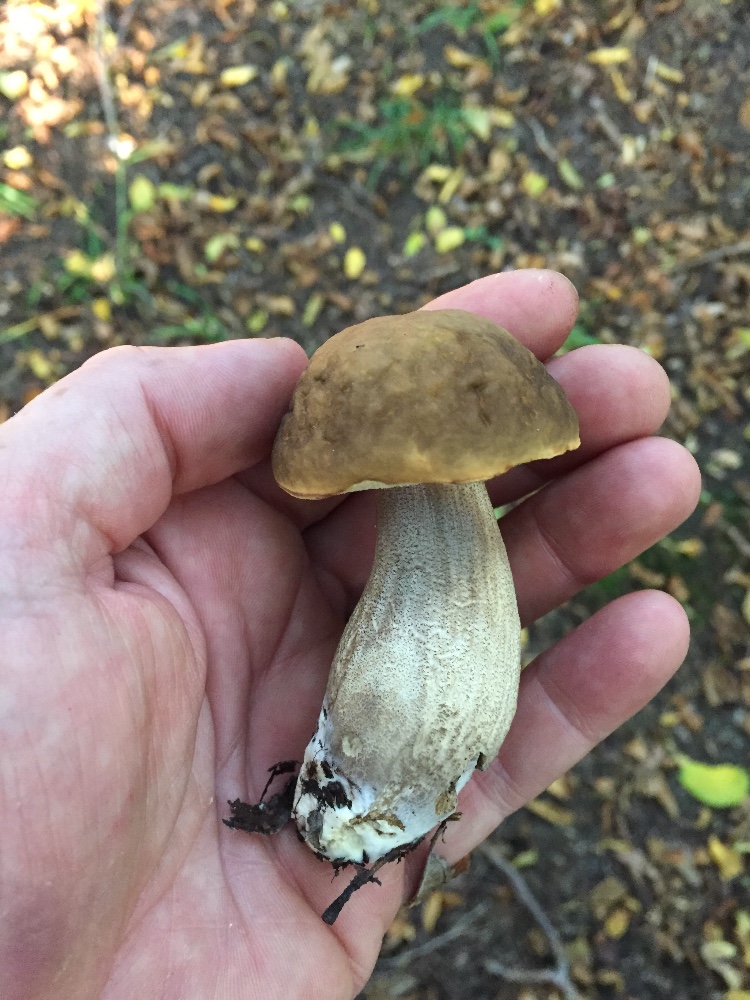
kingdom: Fungi
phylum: Basidiomycota
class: Agaricomycetes
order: Boletales
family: Boletaceae
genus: Leccinellum
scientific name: Leccinellum pseudoscabrum
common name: avnbøg-skælrørhat
